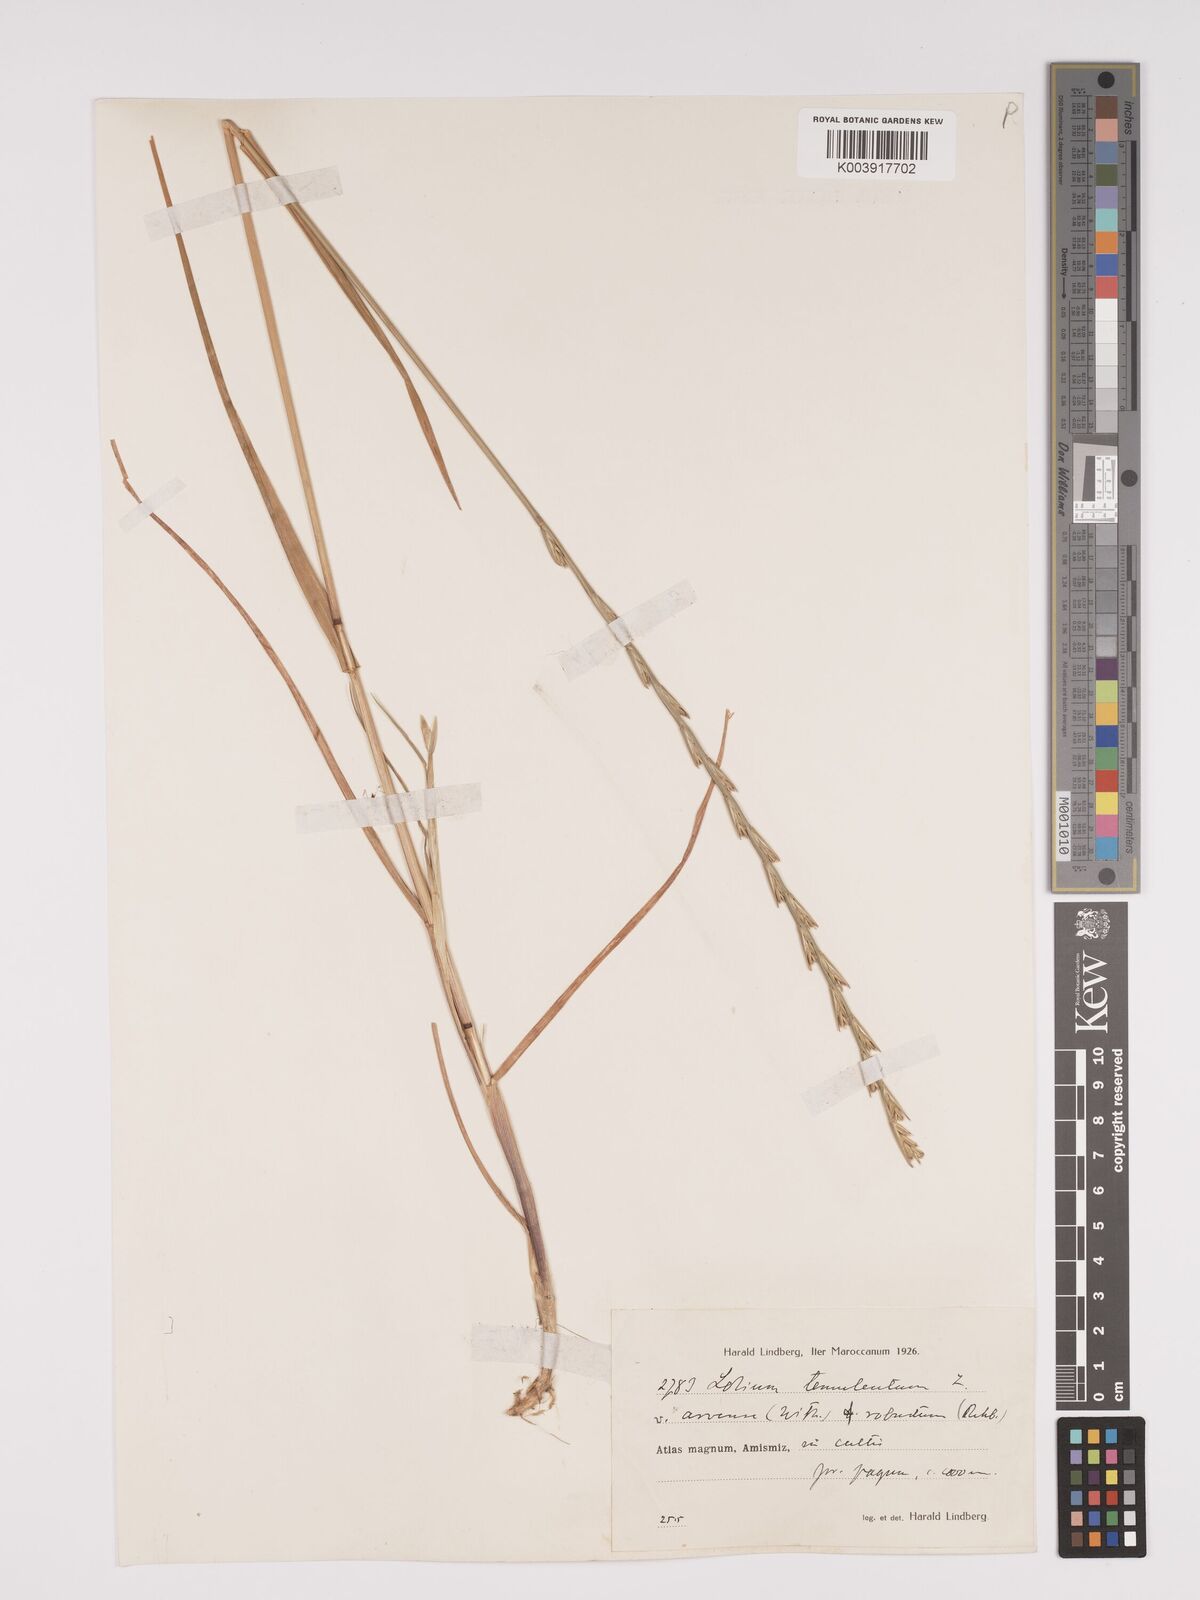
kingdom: Plantae
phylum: Tracheophyta
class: Liliopsida
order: Poales
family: Poaceae
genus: Lolium
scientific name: Lolium temulentum
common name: Darnel
